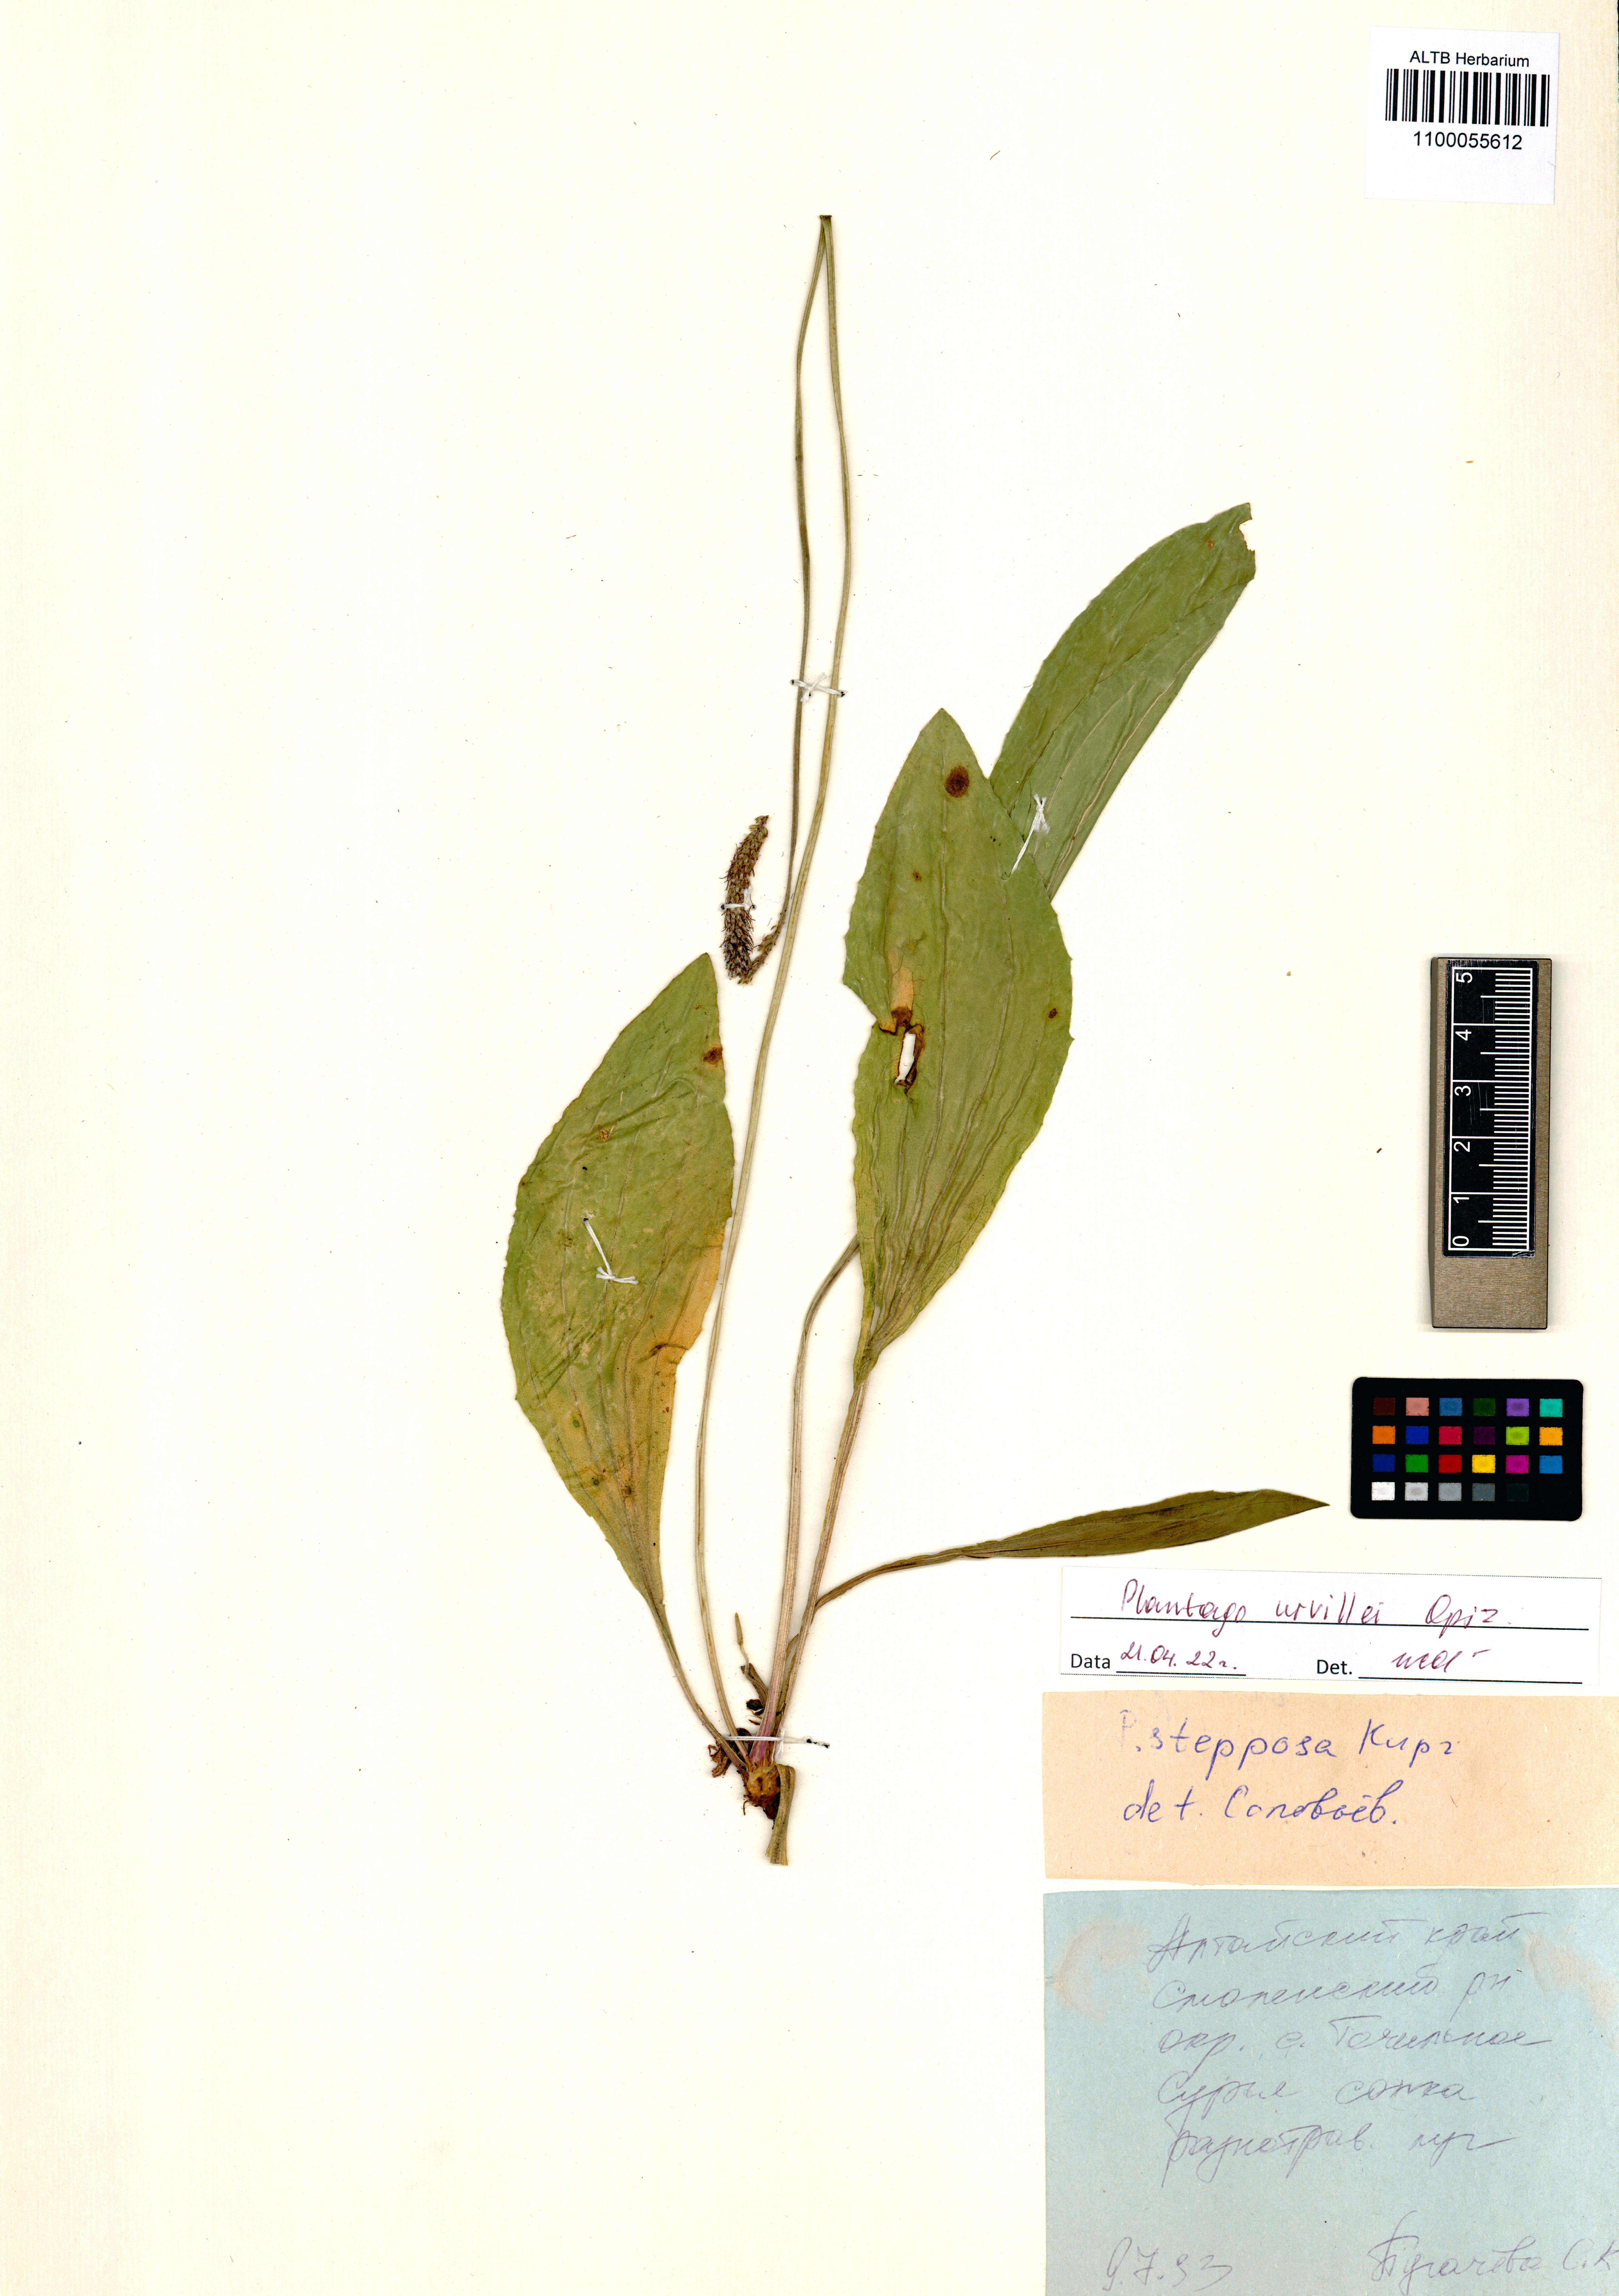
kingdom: Plantae
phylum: Tracheophyta
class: Magnoliopsida
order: Lamiales
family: Plantaginaceae
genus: Plantago
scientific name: Plantago urvillei
